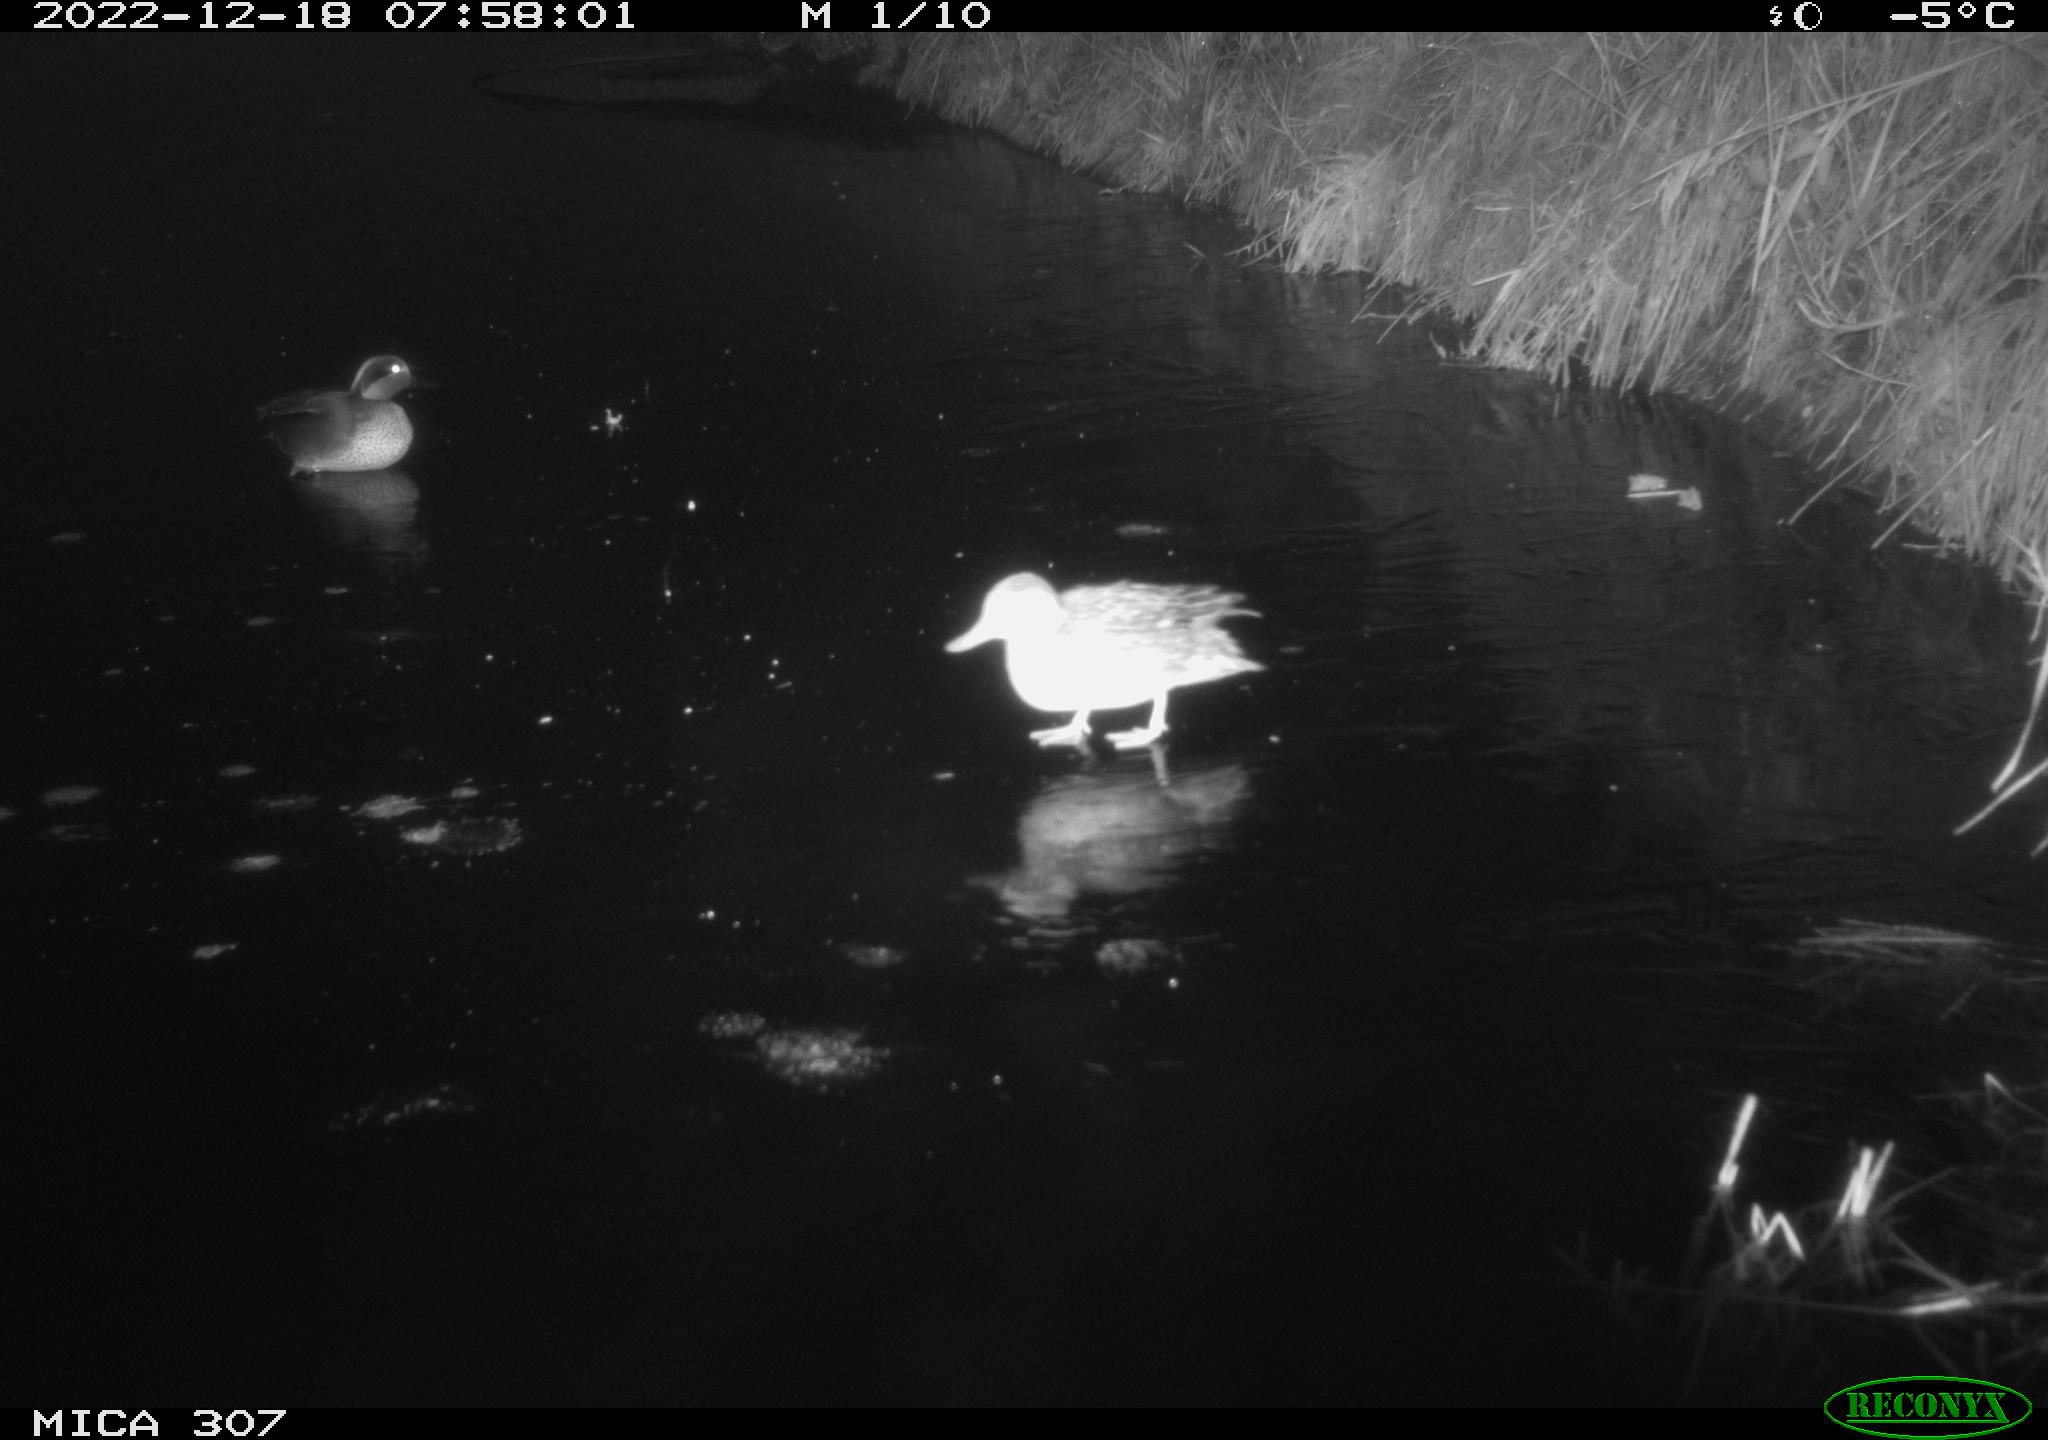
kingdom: Animalia
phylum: Chordata
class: Aves
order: Anseriformes
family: Anatidae
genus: Anas
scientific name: Anas
